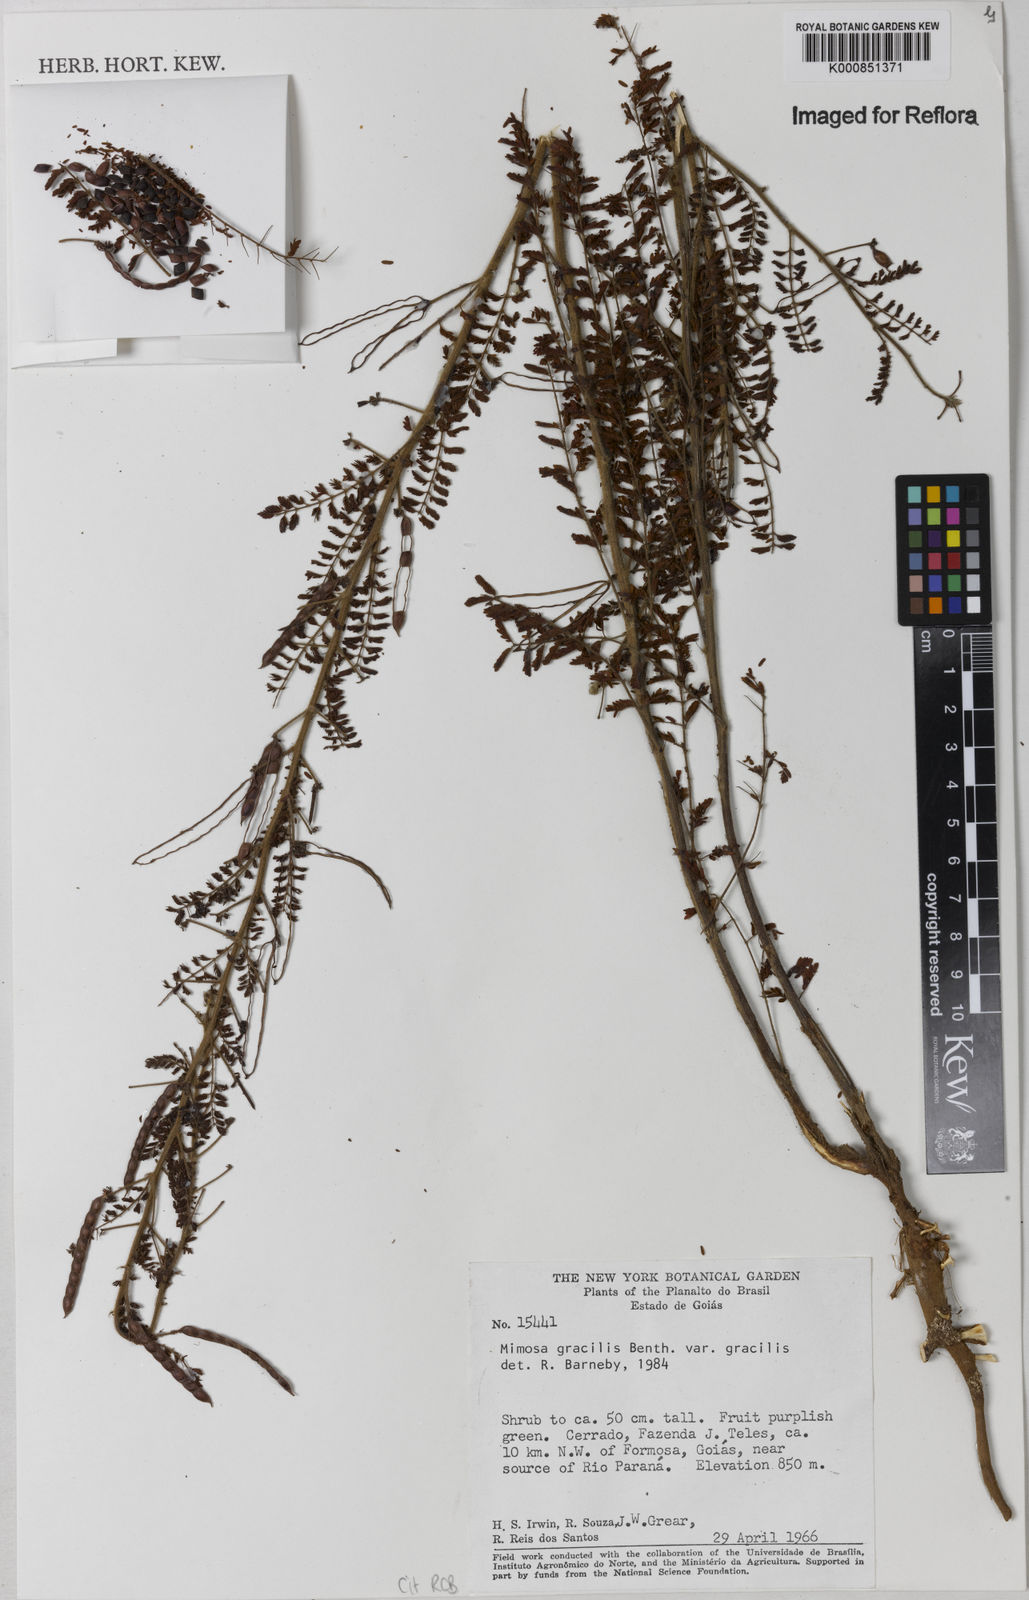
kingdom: Plantae
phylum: Tracheophyta
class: Magnoliopsida
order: Fabales
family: Fabaceae
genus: Mimosa
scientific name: Mimosa gracilis
